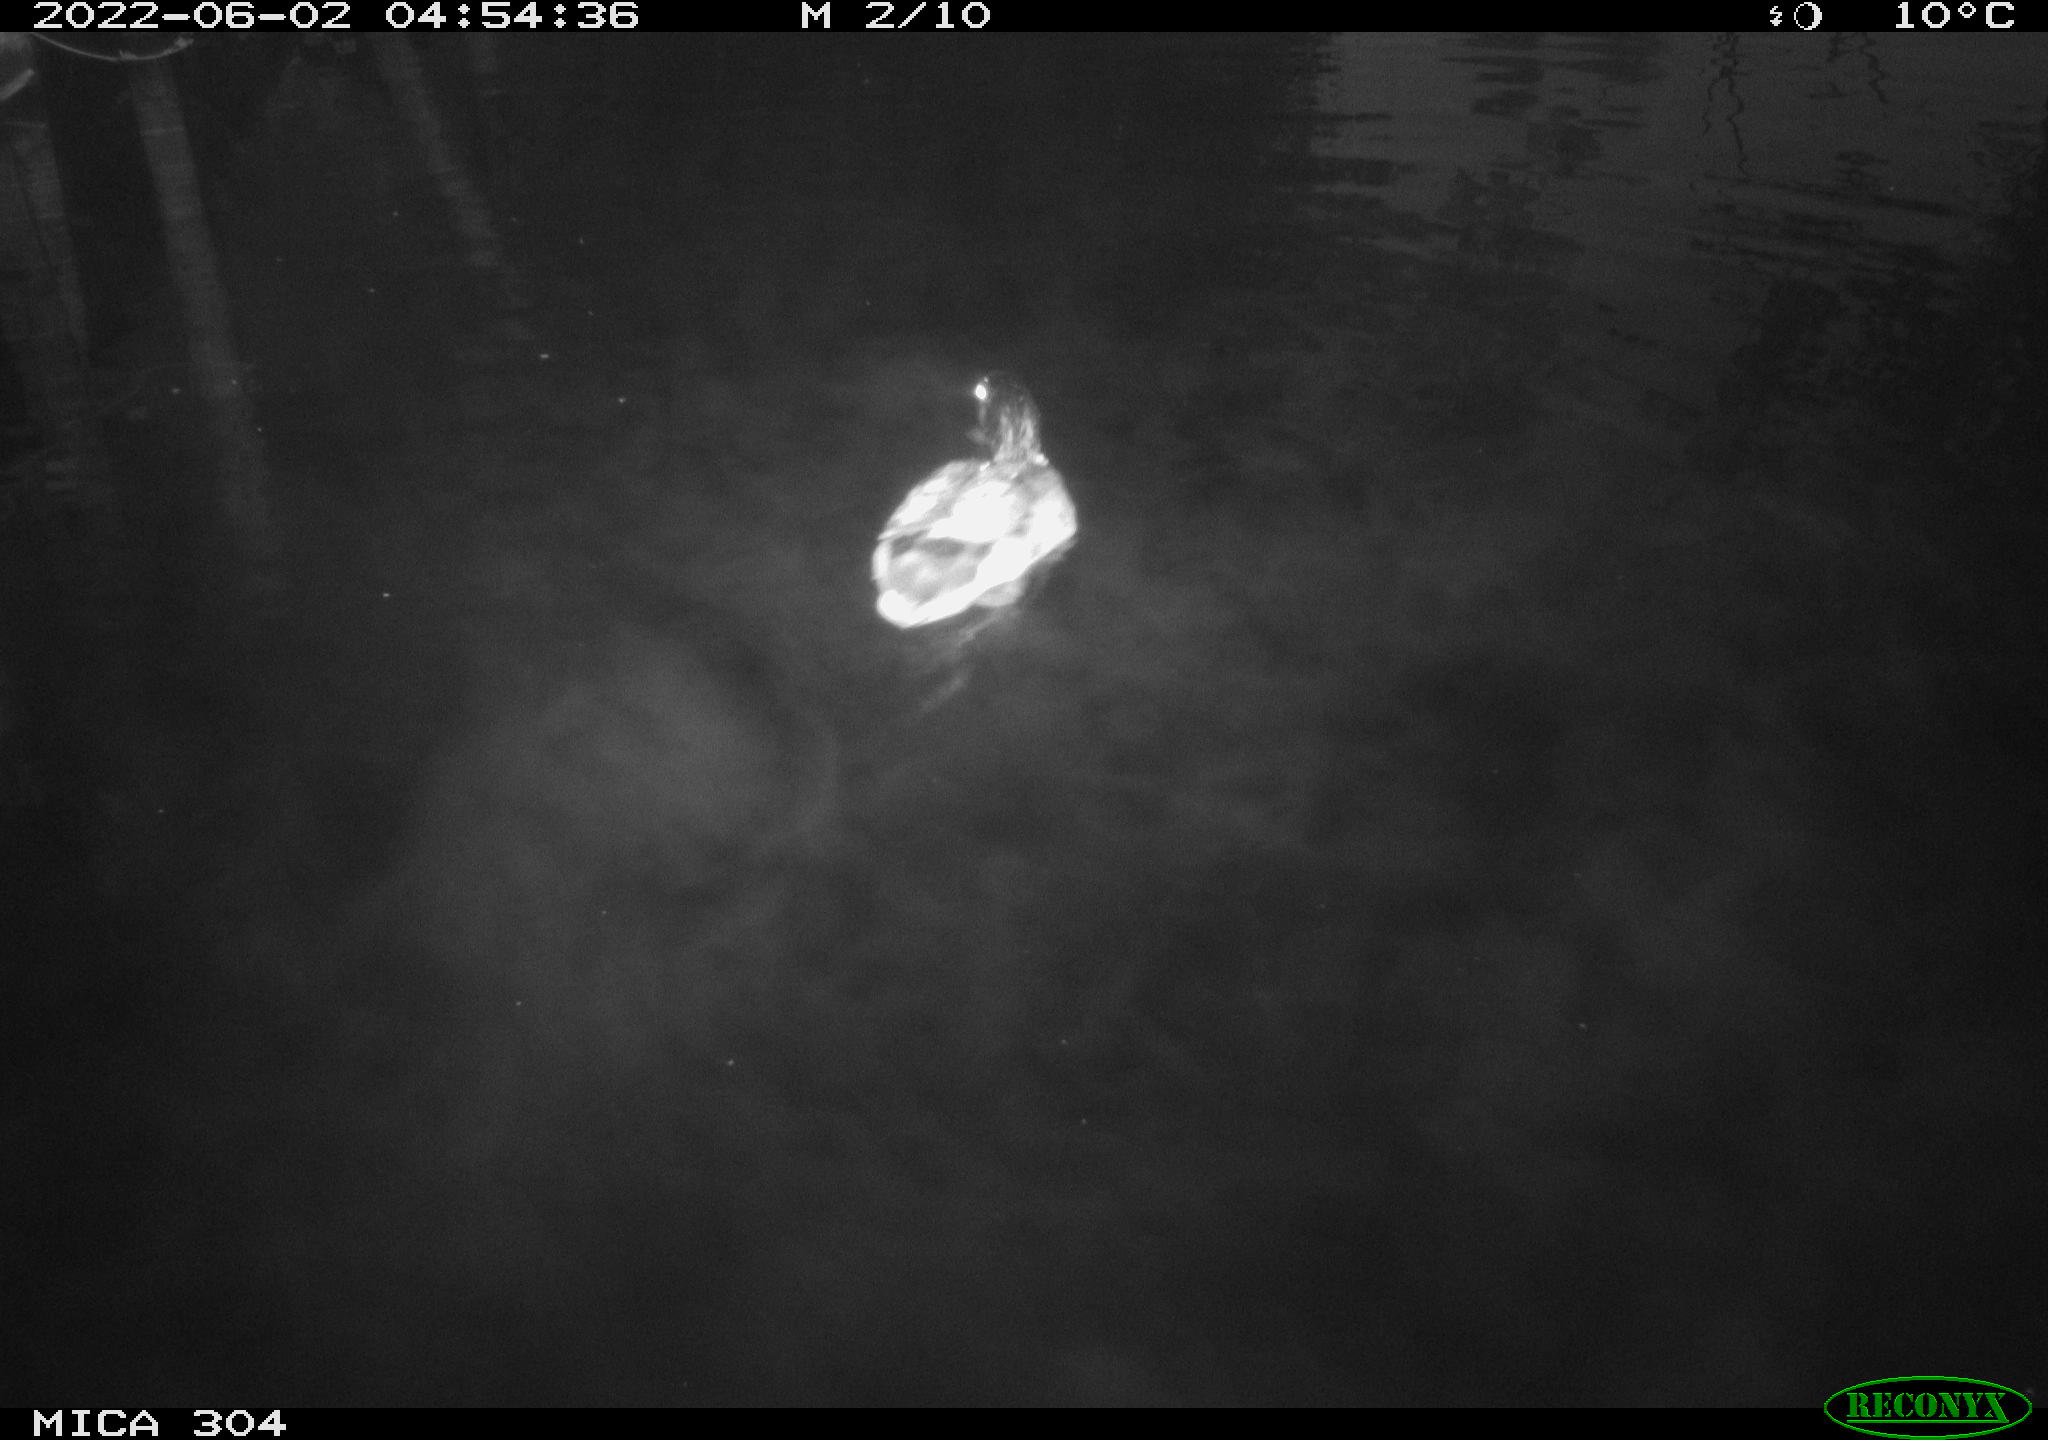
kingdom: Animalia
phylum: Chordata
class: Aves
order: Anseriformes
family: Anatidae
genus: Anas
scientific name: Anas platyrhynchos
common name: Mallard
